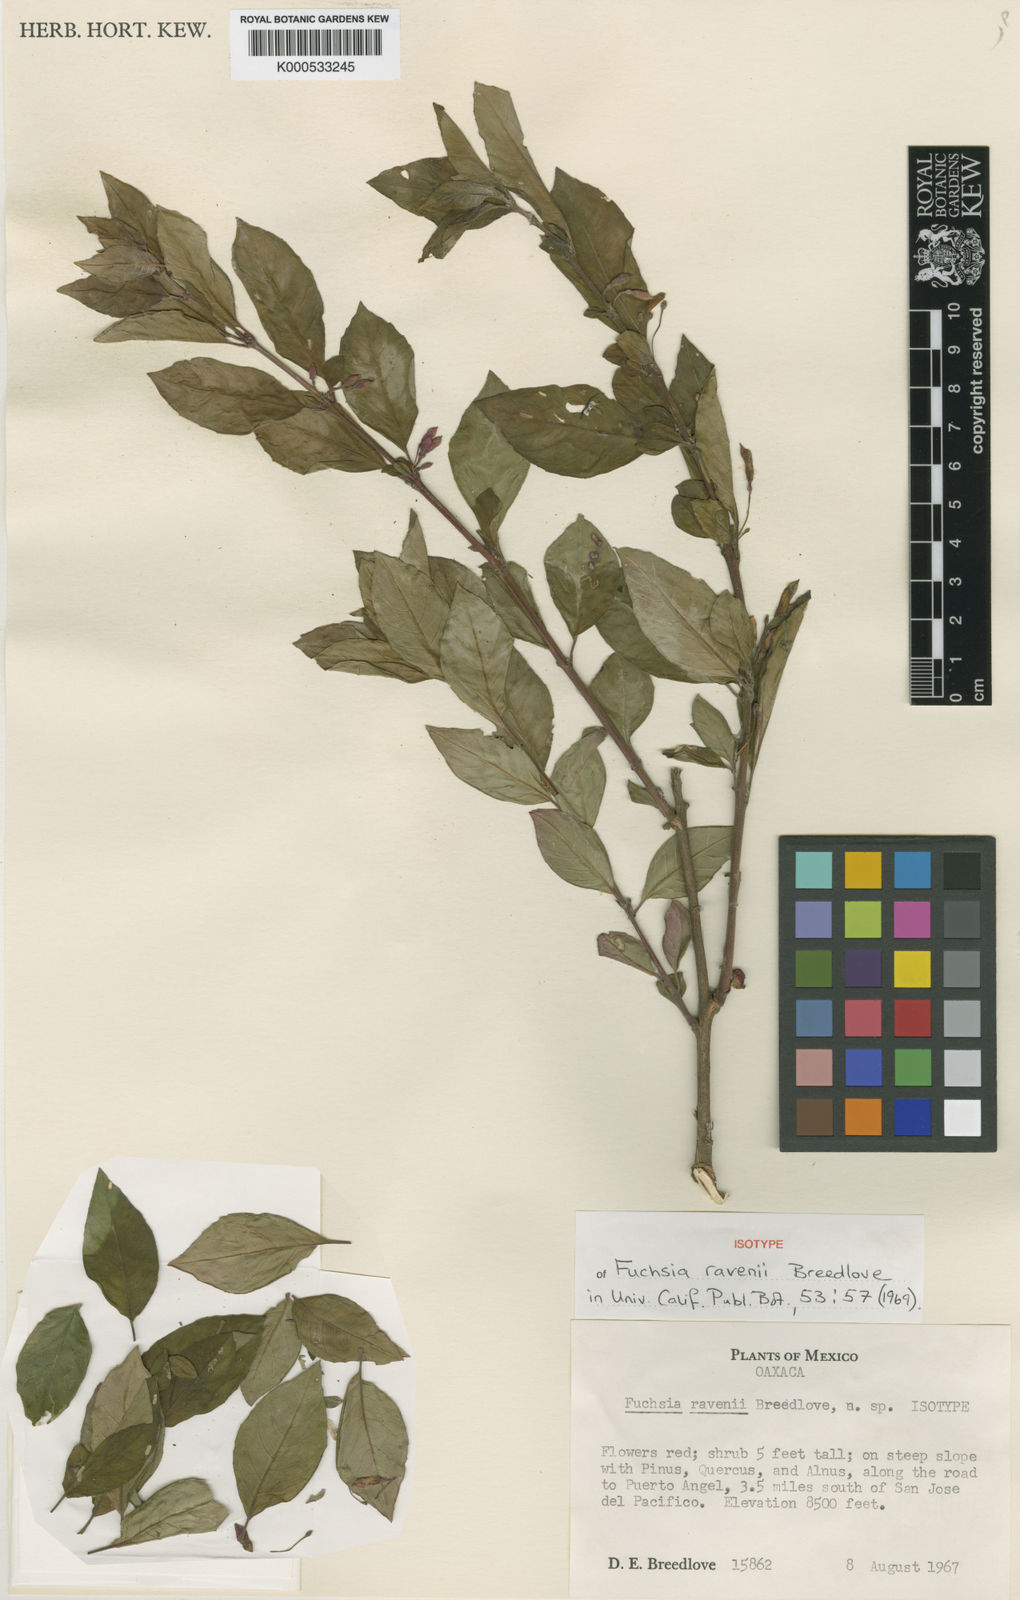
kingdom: Plantae
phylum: Tracheophyta
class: Magnoliopsida
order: Myrtales
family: Onagraceae
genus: Fuchsia
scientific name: Fuchsia ravenii
